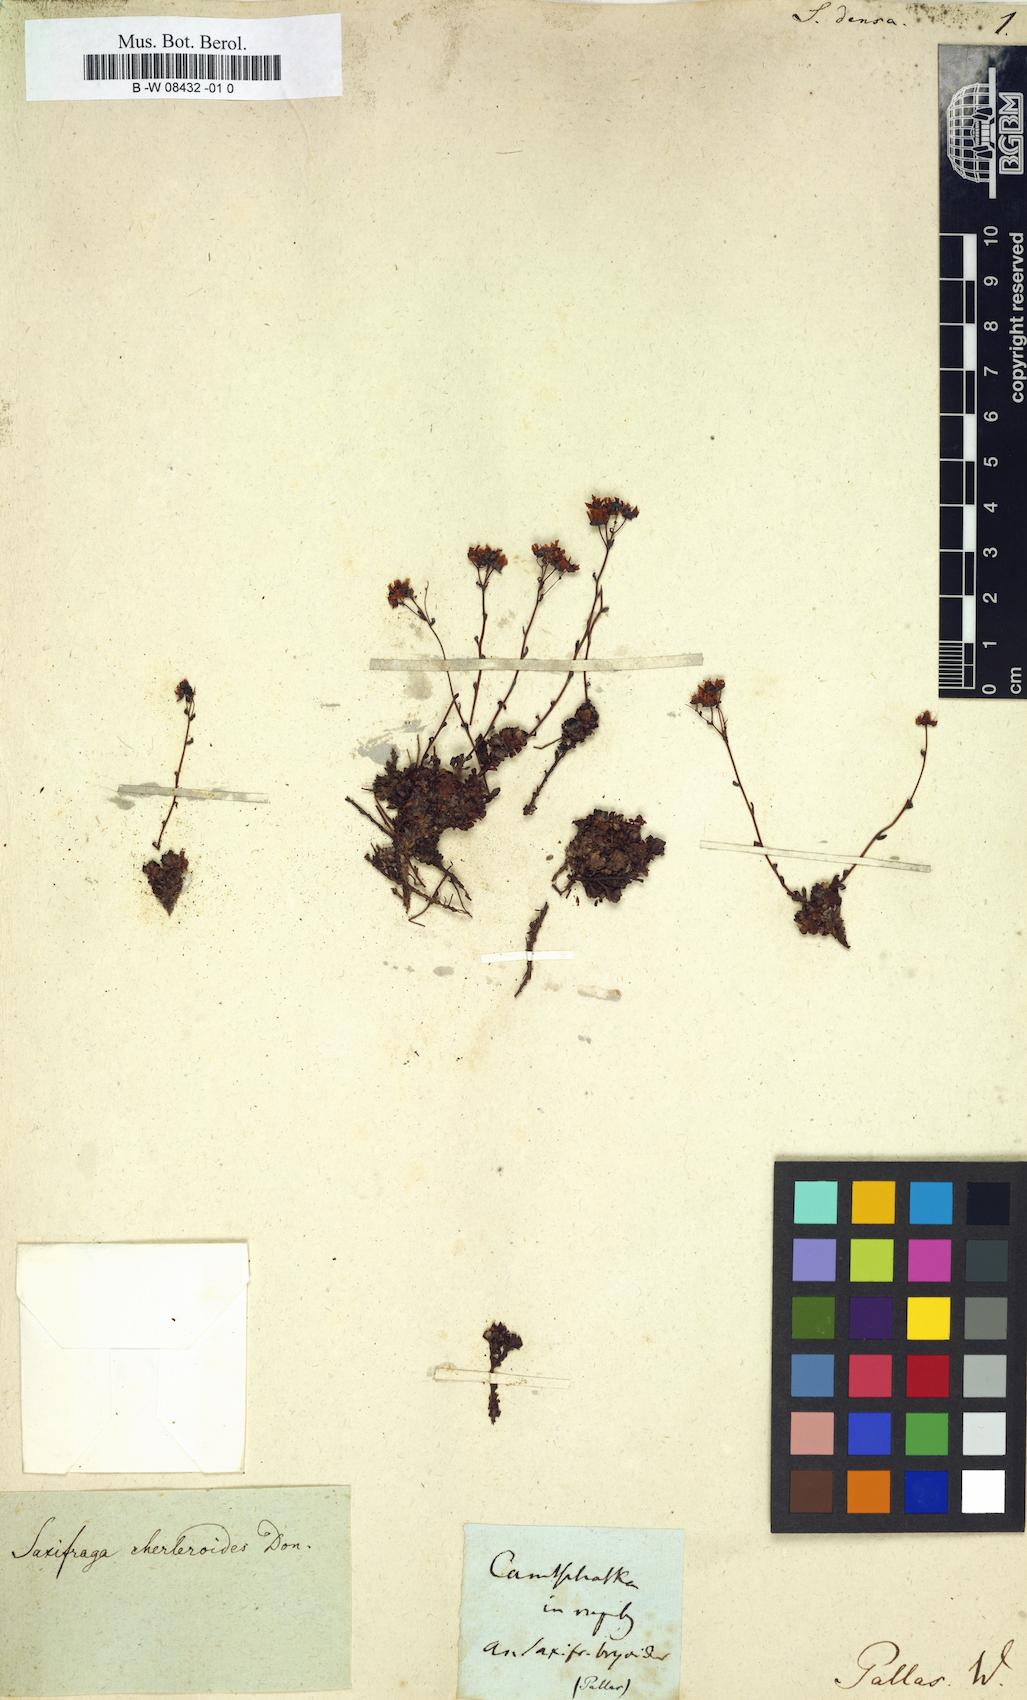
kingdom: Plantae
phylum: Tracheophyta
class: Magnoliopsida
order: Saxifragales
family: Saxifragaceae
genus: Saxifraga
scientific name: Saxifraga
